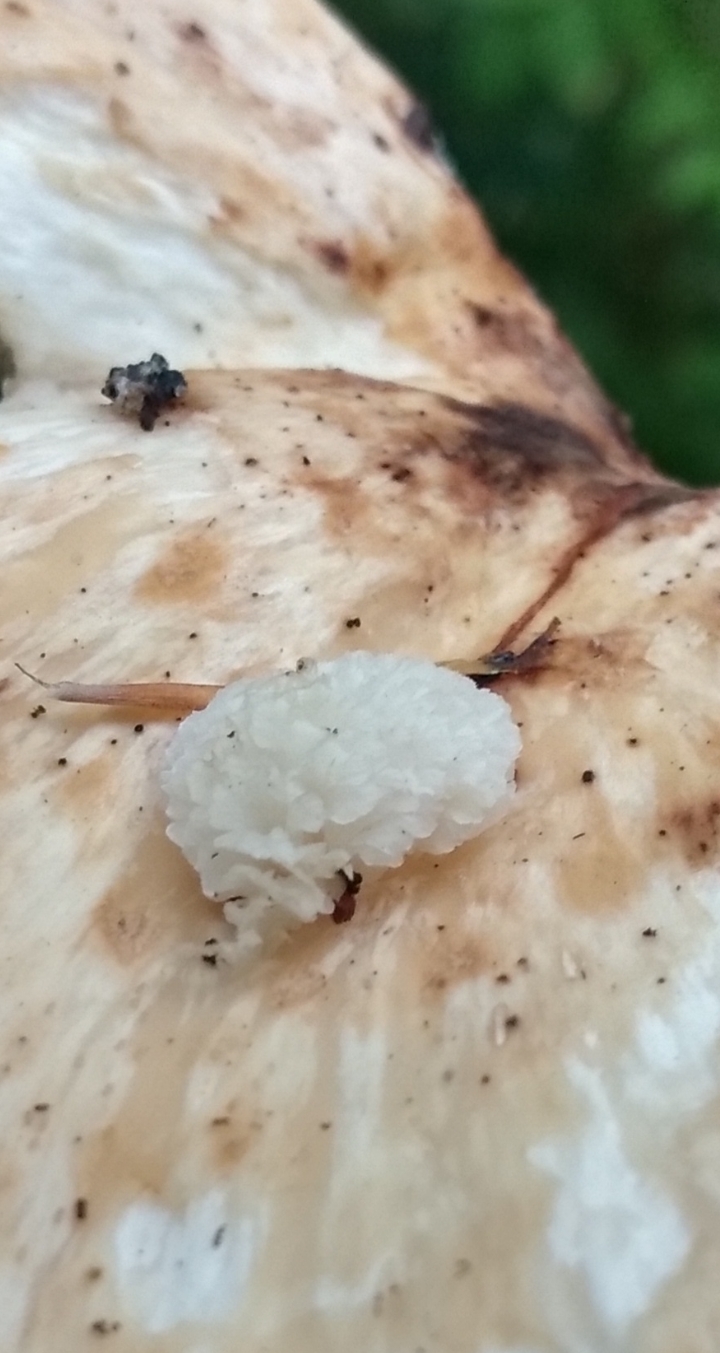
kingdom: Fungi
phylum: Basidiomycota
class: Agaricomycetes
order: Polyporales
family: Polyporaceae
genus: Cerioporus
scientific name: Cerioporus squamosus
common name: skællet stilkporesvamp
